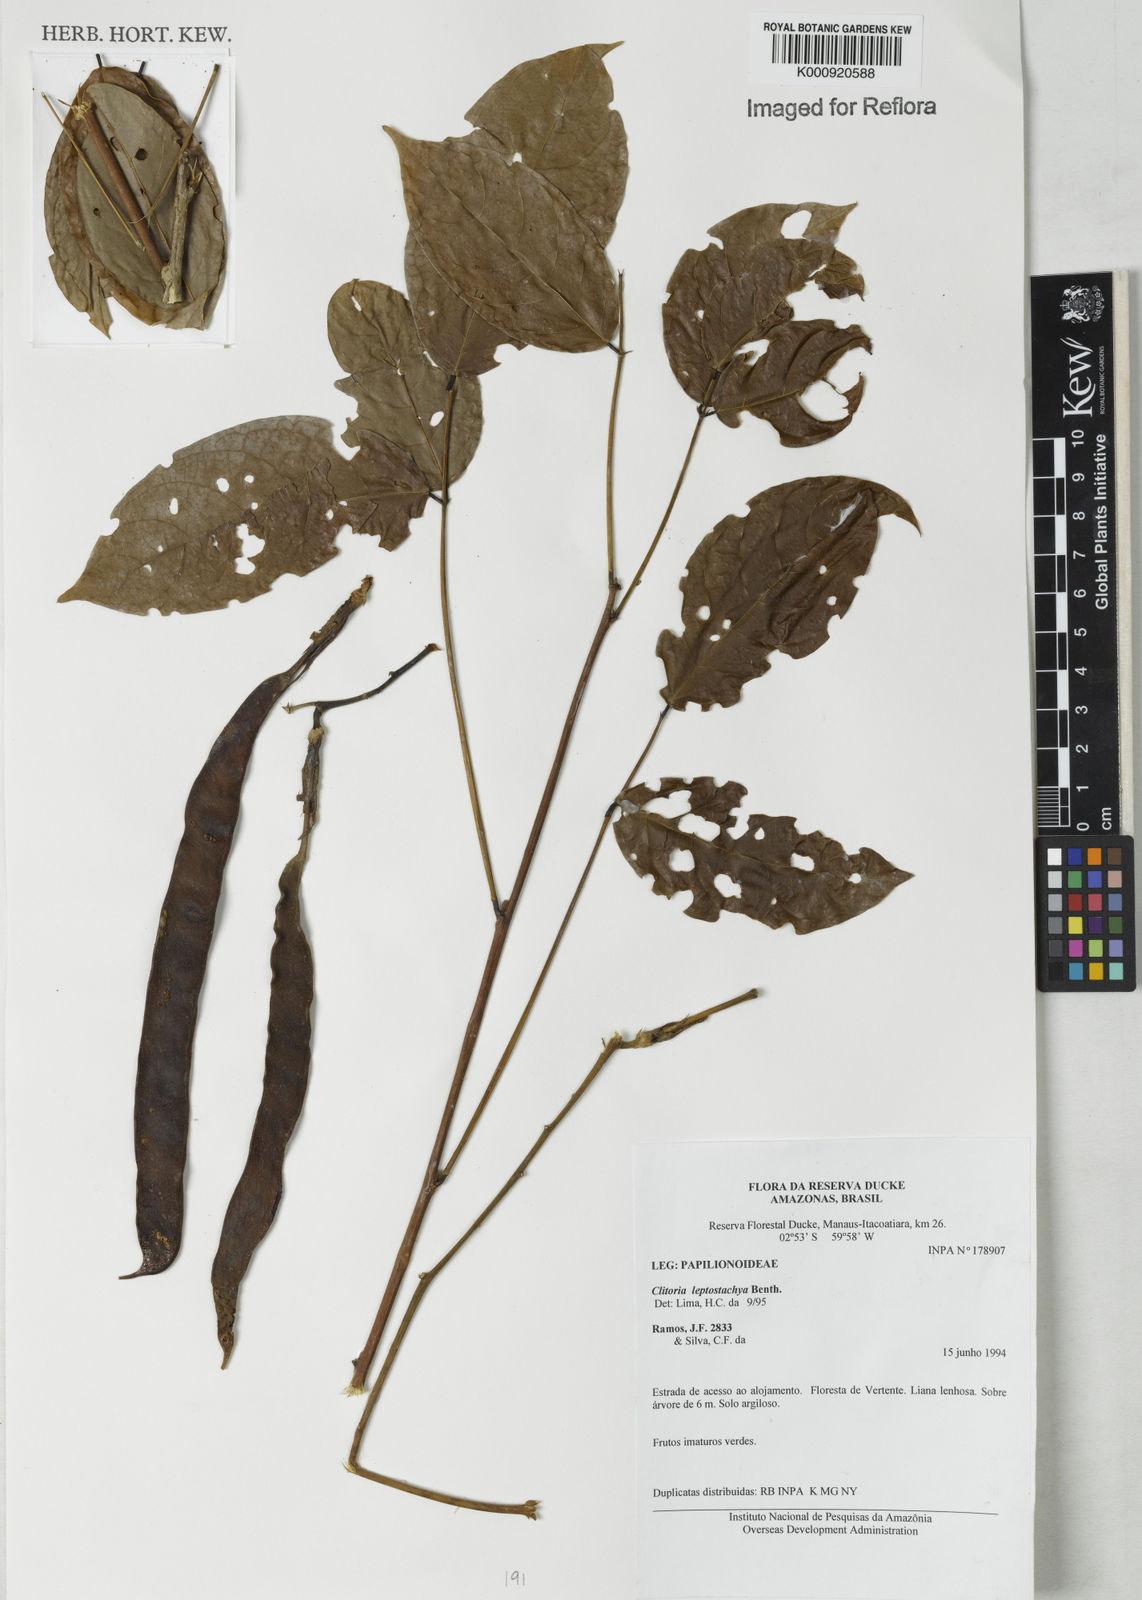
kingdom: Plantae
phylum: Tracheophyta
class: Magnoliopsida
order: Fabales
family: Fabaceae
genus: Clitoria
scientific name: Clitoria leptostachya
